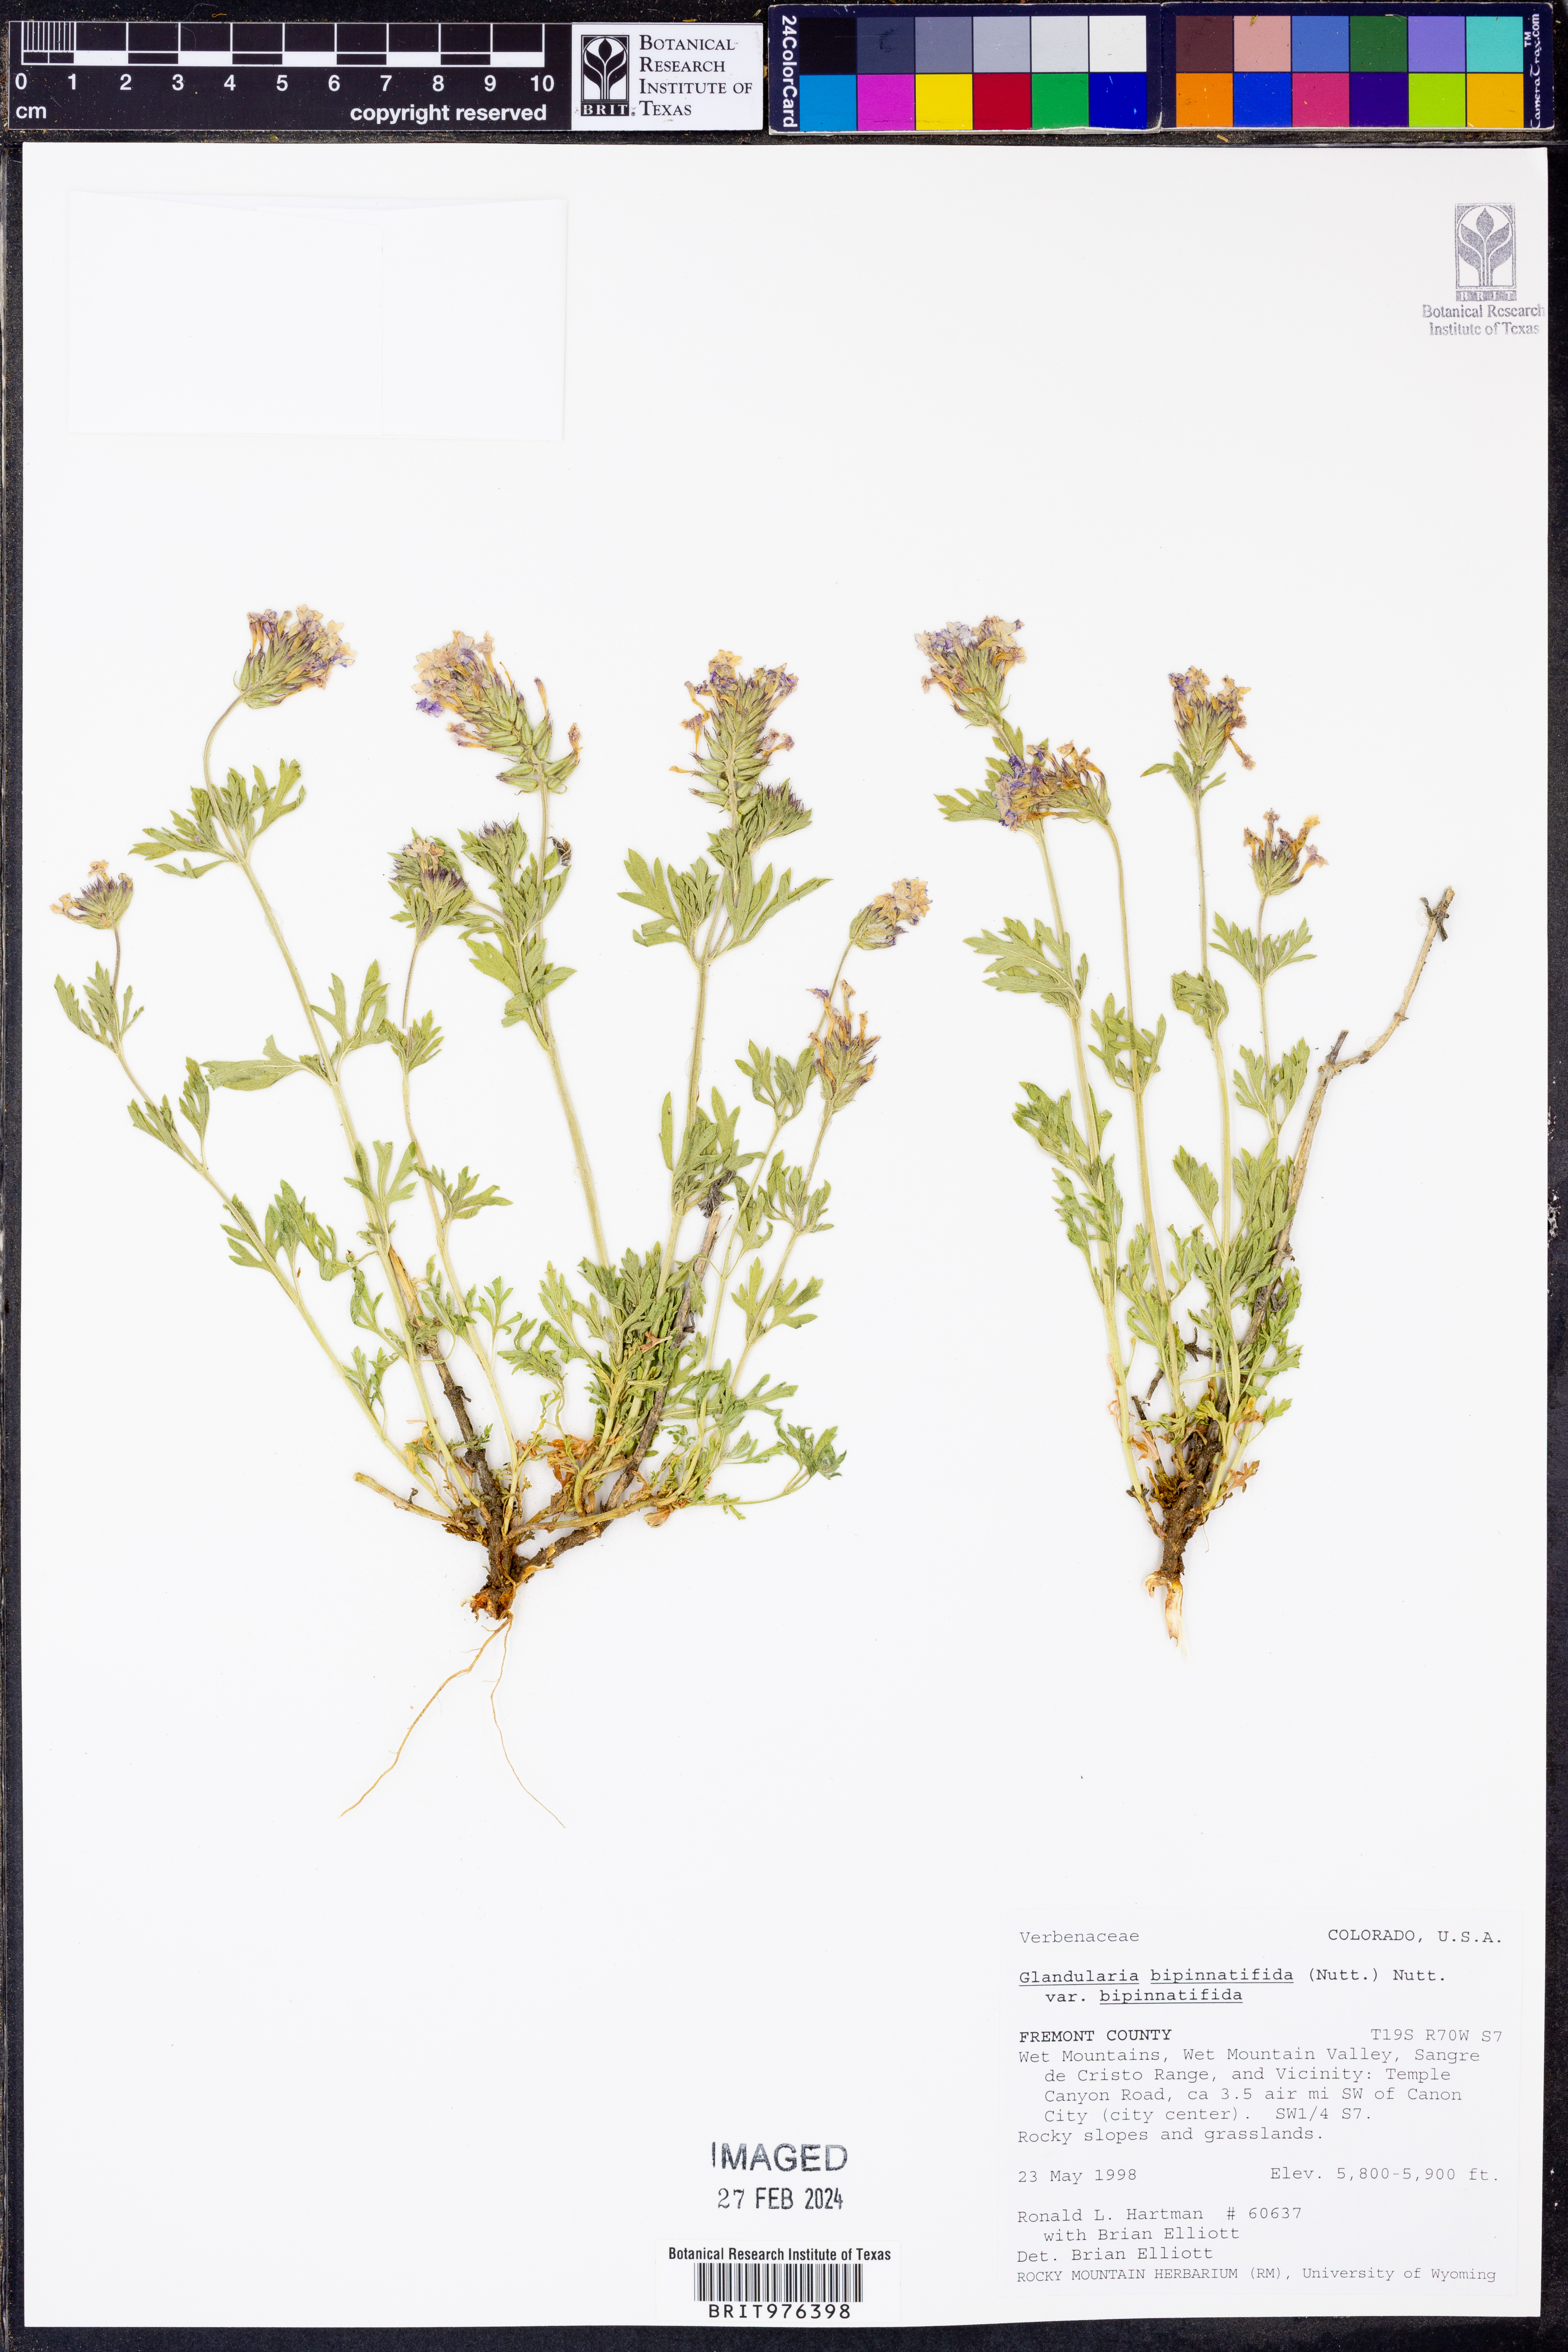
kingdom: Plantae
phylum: Tracheophyta
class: Magnoliopsida
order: Lamiales
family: Verbenaceae
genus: Verbena
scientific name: Verbena bipinnatifida
